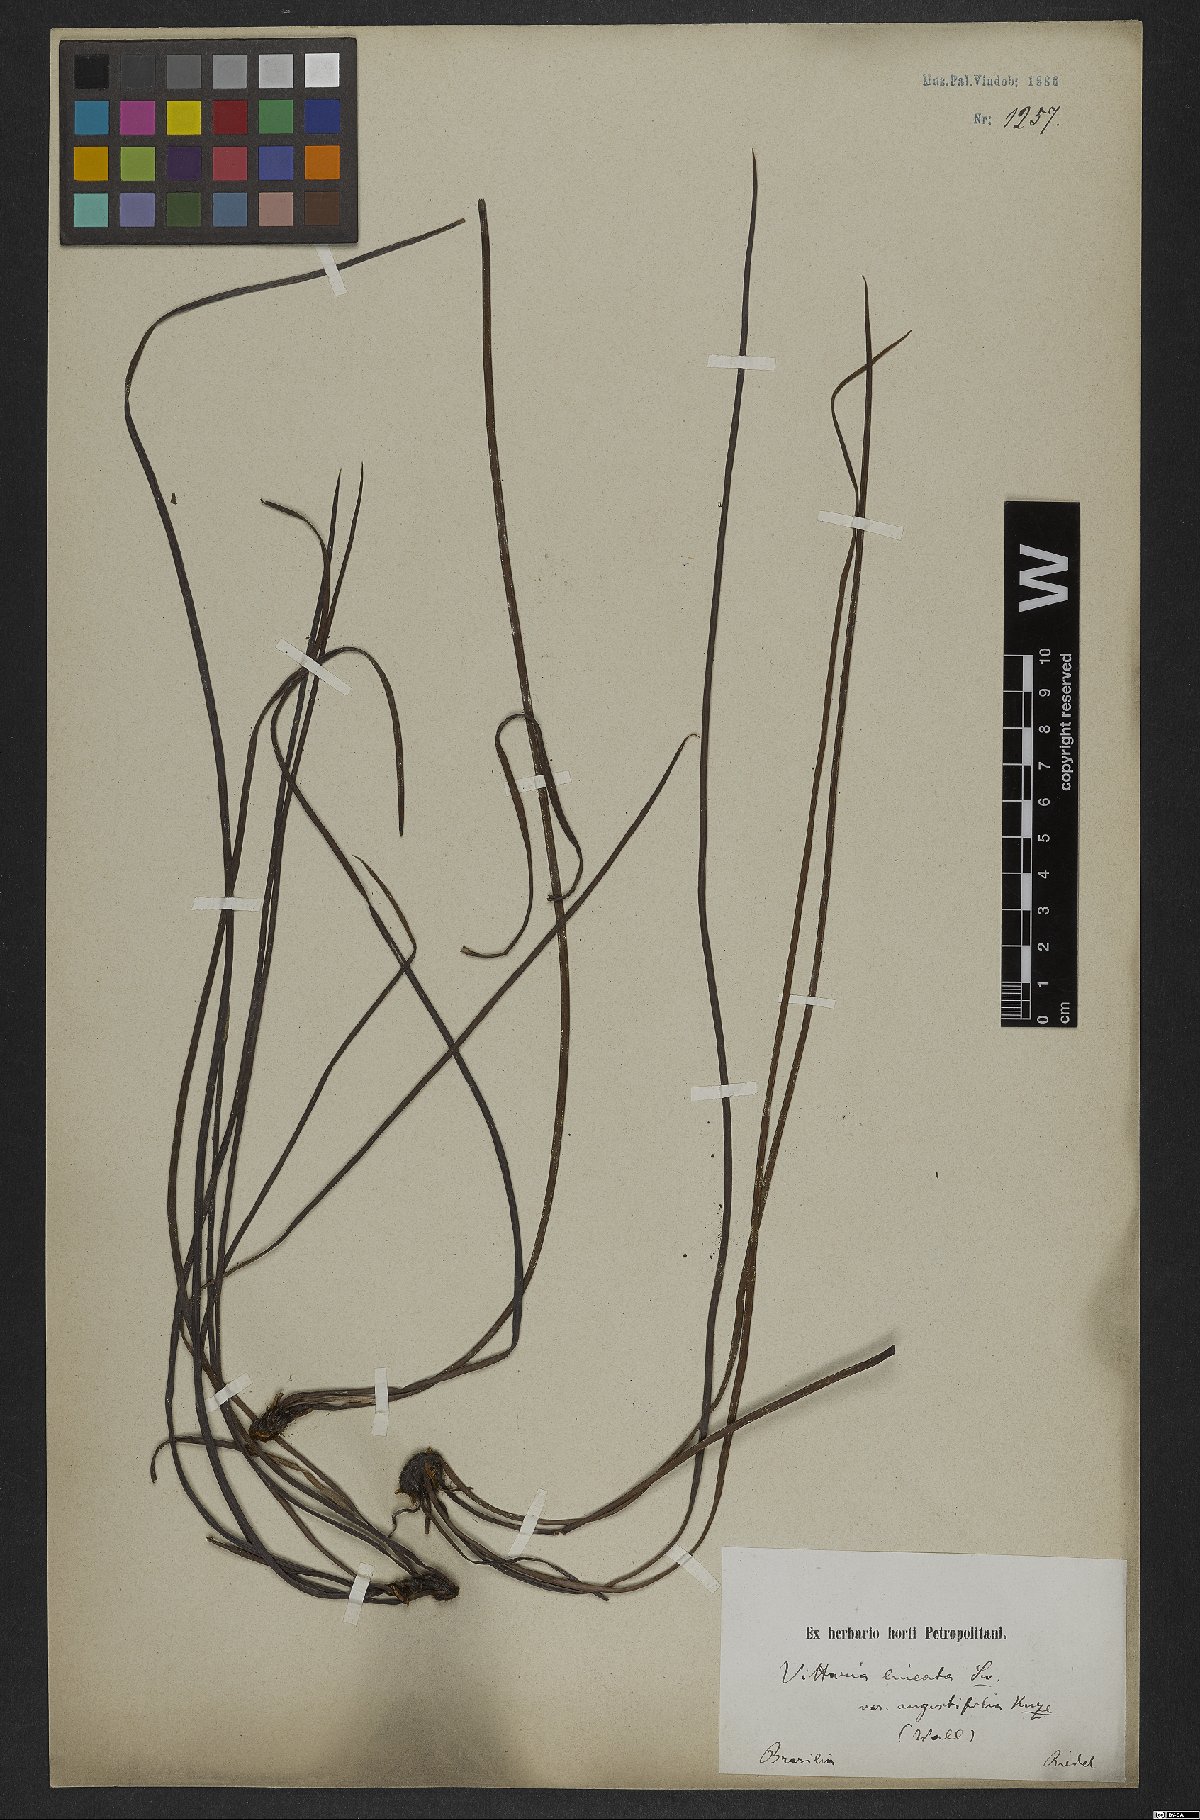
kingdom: Plantae
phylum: Tracheophyta
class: Polypodiopsida
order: Polypodiales
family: Pteridaceae
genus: Vittaria
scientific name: Vittaria lineata
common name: Shoestring fern
